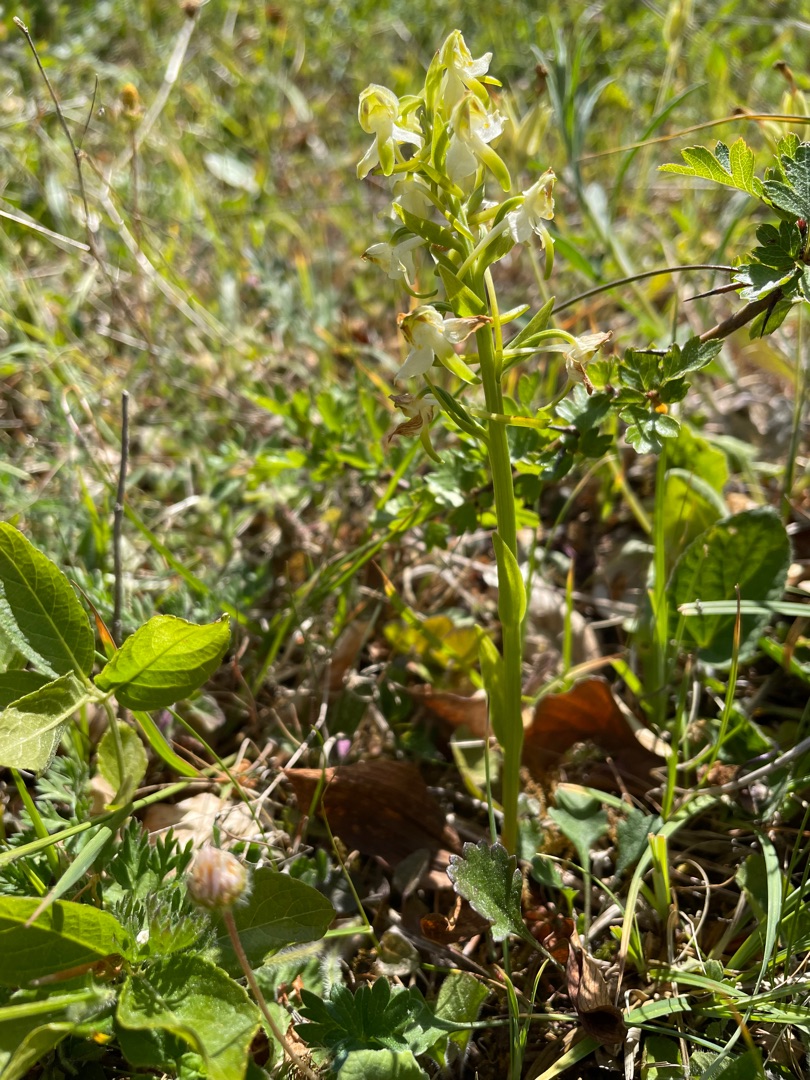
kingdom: Plantae
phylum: Tracheophyta
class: Liliopsida
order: Asparagales
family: Orchidaceae
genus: Platanthera
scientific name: Platanthera chlorantha
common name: Skov-gøgelilje
